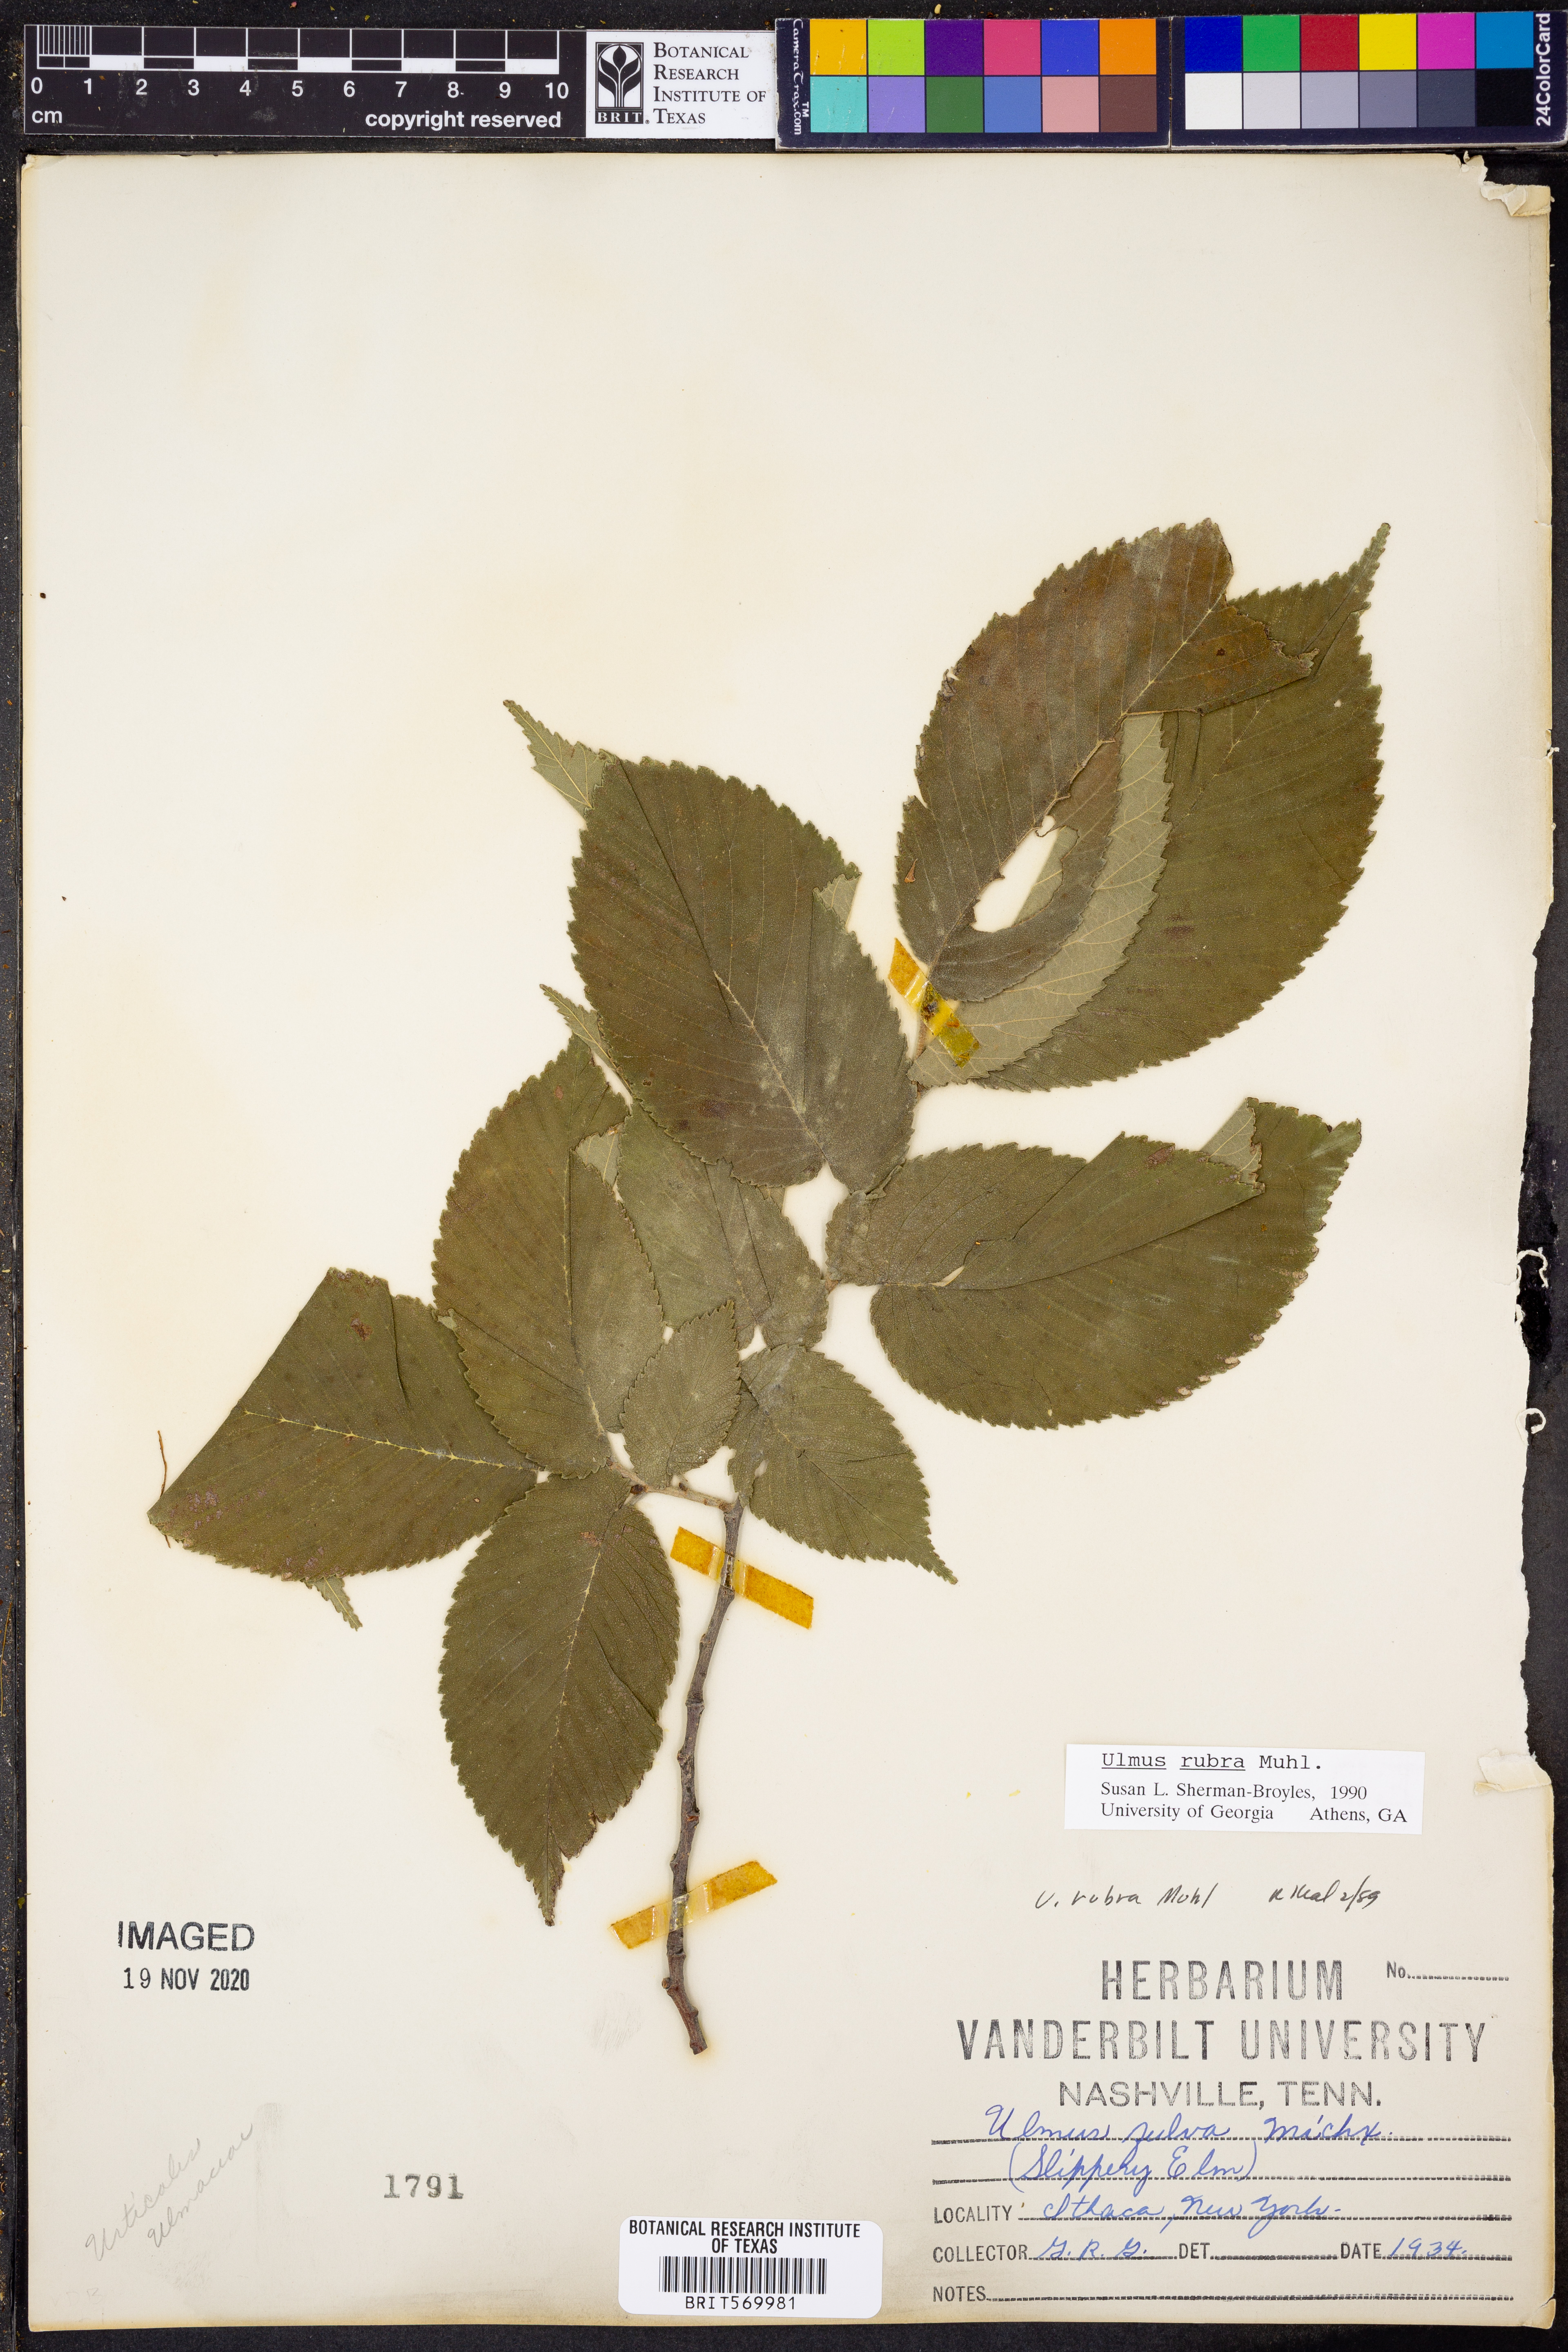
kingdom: Plantae
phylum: Tracheophyta
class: Magnoliopsida
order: Rosales
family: Ulmaceae
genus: Ulmus
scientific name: Ulmus rubra
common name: Slippery elm
